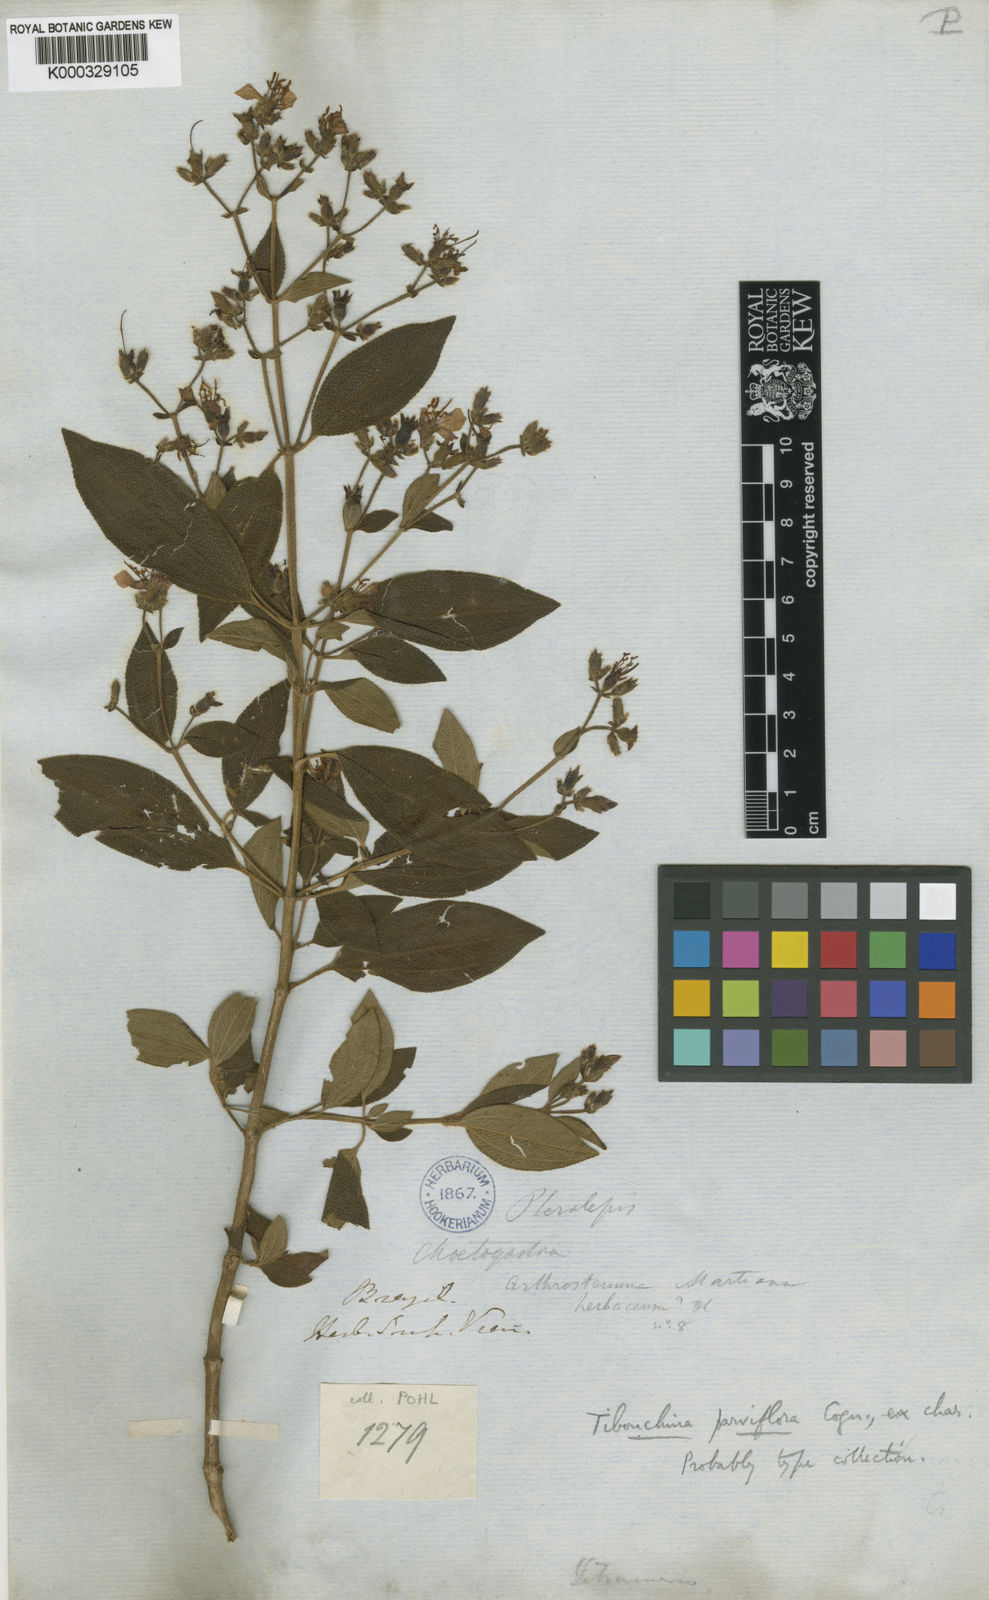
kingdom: Plantae
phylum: Tracheophyta
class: Magnoliopsida
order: Myrtales
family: Melastomataceae
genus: Chaetogastra
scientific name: Chaetogastra parviflora
